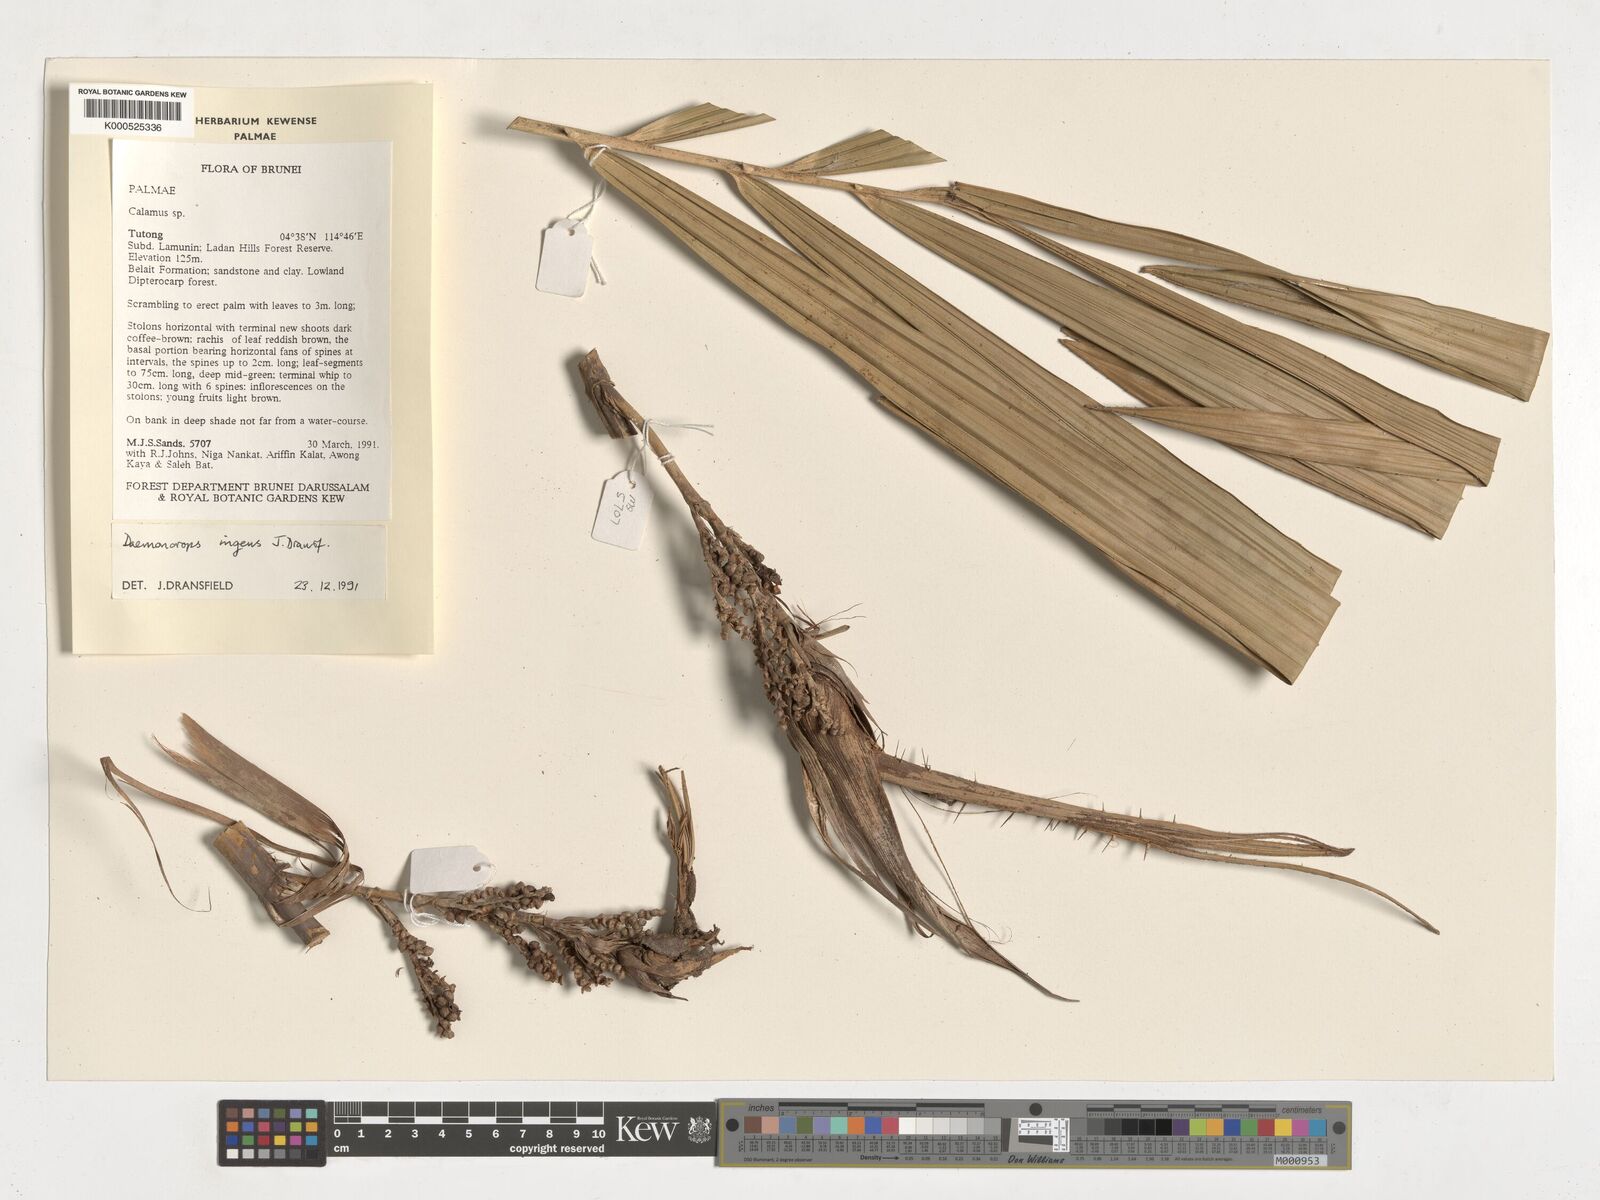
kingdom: Plantae
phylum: Tracheophyta
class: Liliopsida
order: Arecales
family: Arecaceae
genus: Calamus
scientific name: Calamus ingens
